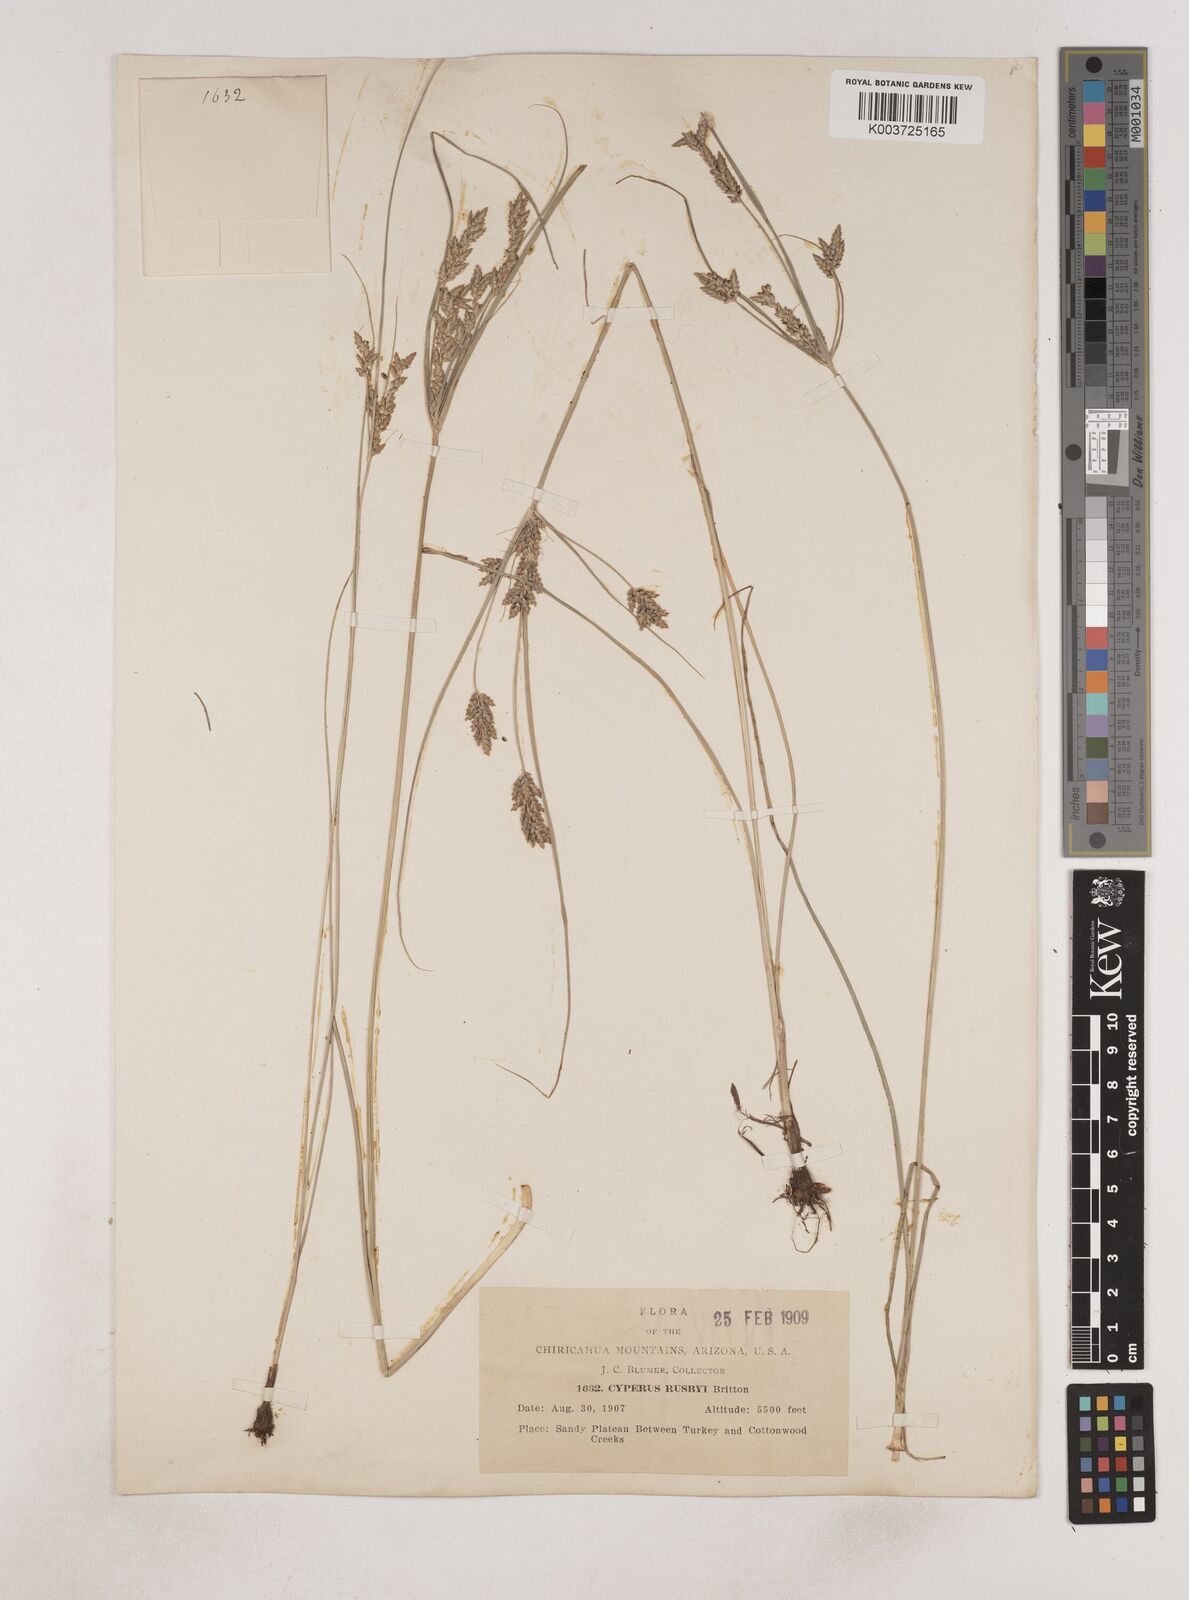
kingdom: Plantae
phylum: Tracheophyta
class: Liliopsida
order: Poales
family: Cyperaceae
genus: Cyperus
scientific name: Cyperus sphaerolepis
